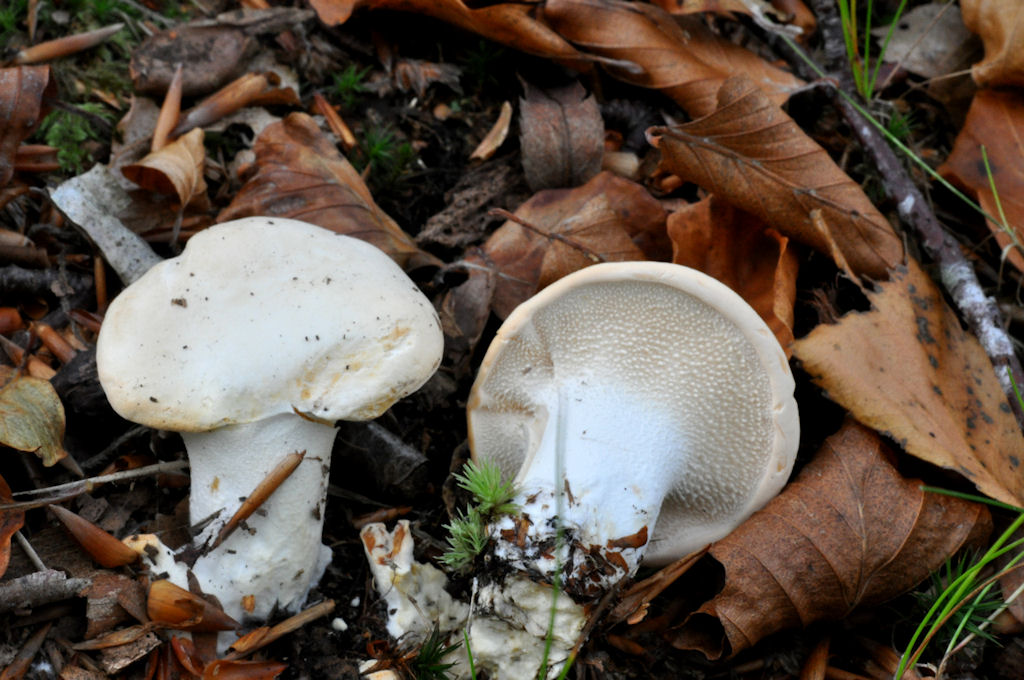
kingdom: Fungi
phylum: Basidiomycota
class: Agaricomycetes
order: Cantharellales
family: Hydnaceae
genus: Hydnum
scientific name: Hydnum repandum
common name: almindelig pigsvamp
